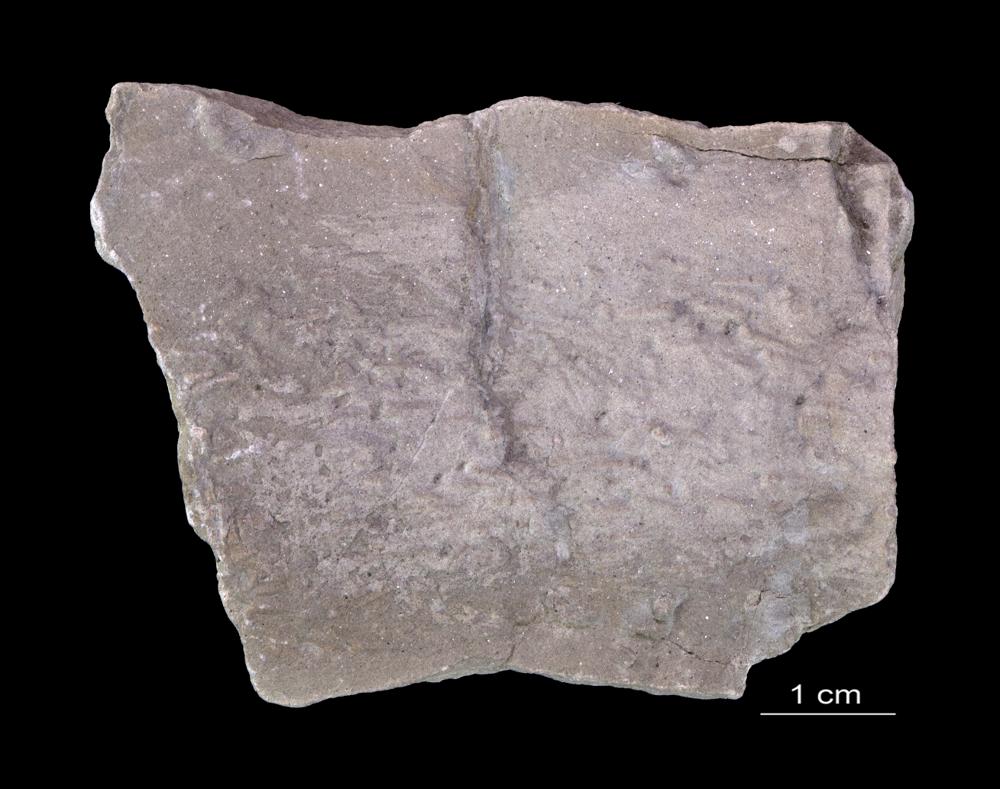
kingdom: Animalia
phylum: Annelida
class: Polychaeta
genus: Volborthella
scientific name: Volborthella tenuis
